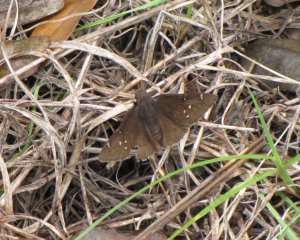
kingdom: Animalia
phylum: Arthropoda
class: Insecta
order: Lepidoptera
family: Hesperiidae
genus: Autochton
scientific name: Autochton
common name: Northern Cloudywing
